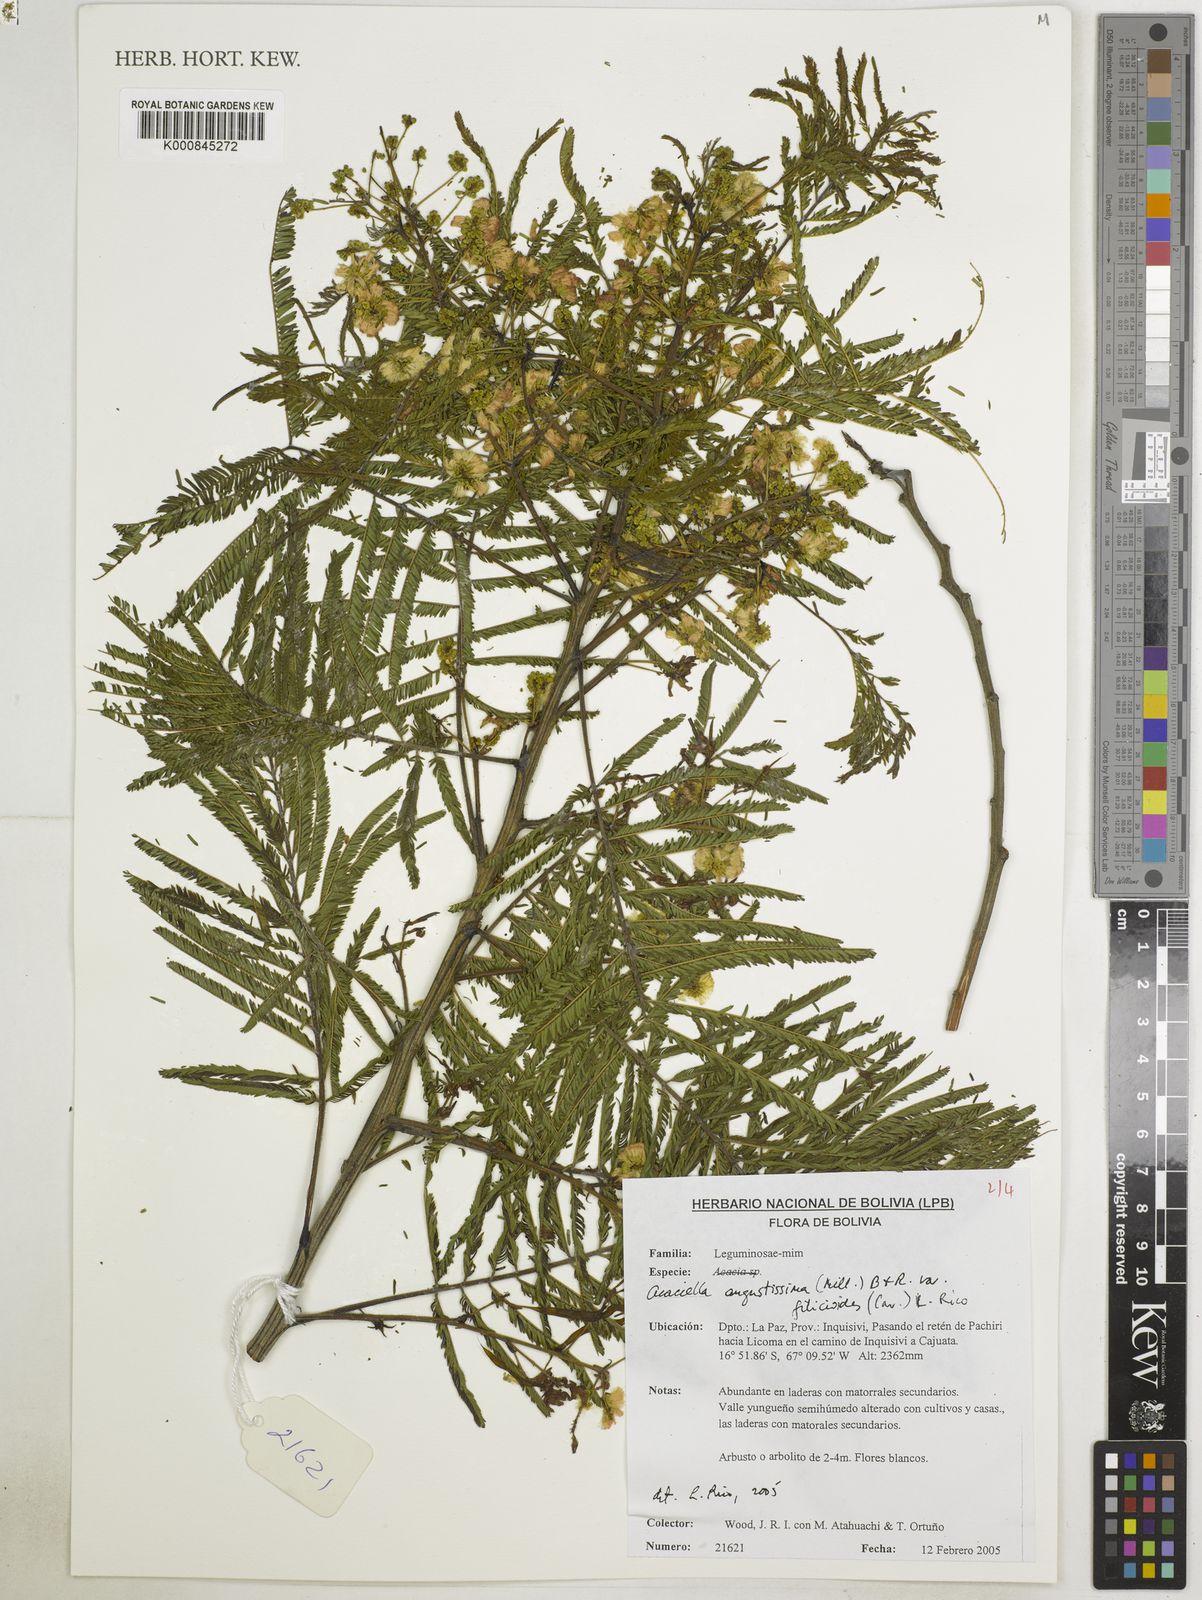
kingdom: Plantae
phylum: Tracheophyta
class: Magnoliopsida
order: Fabales
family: Fabaceae
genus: Acaciella
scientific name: Acaciella angustissima
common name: Prairie acacia
